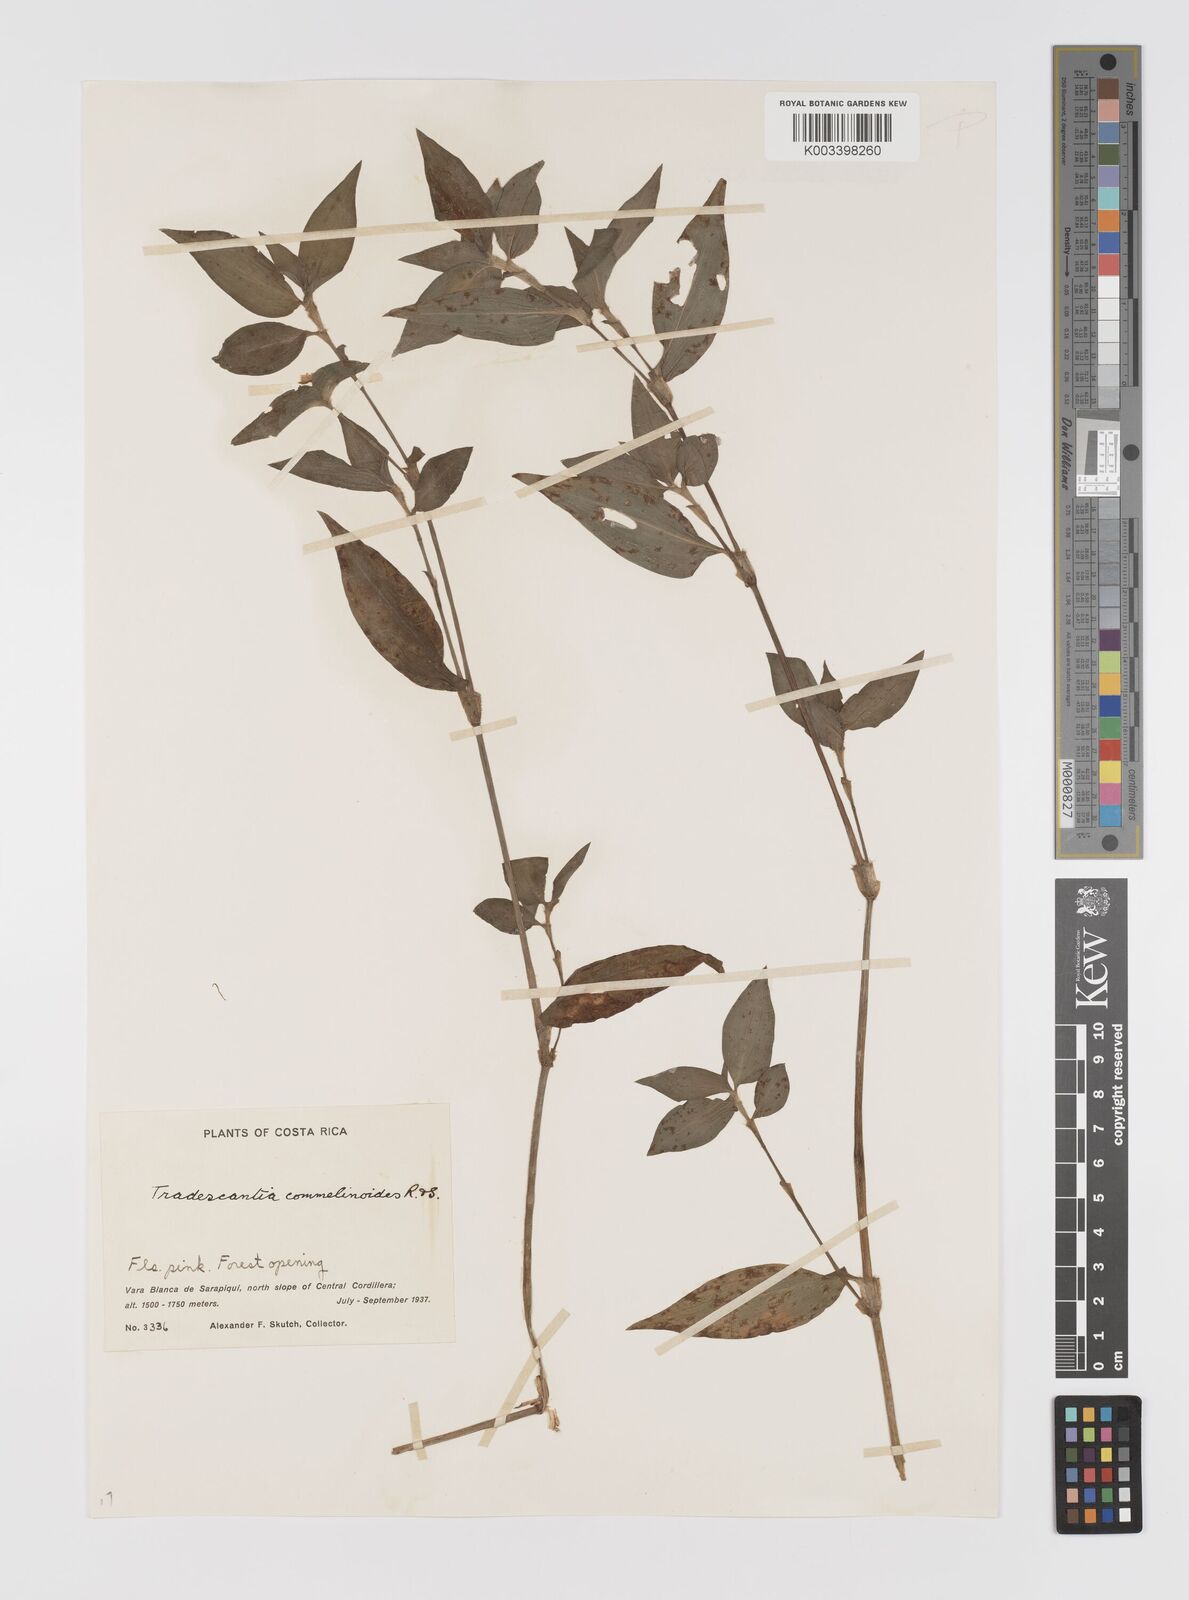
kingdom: Plantae
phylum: Tracheophyta
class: Liliopsida
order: Commelinales
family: Commelinaceae
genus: Tradescantia
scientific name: Tradescantia commelinoides
